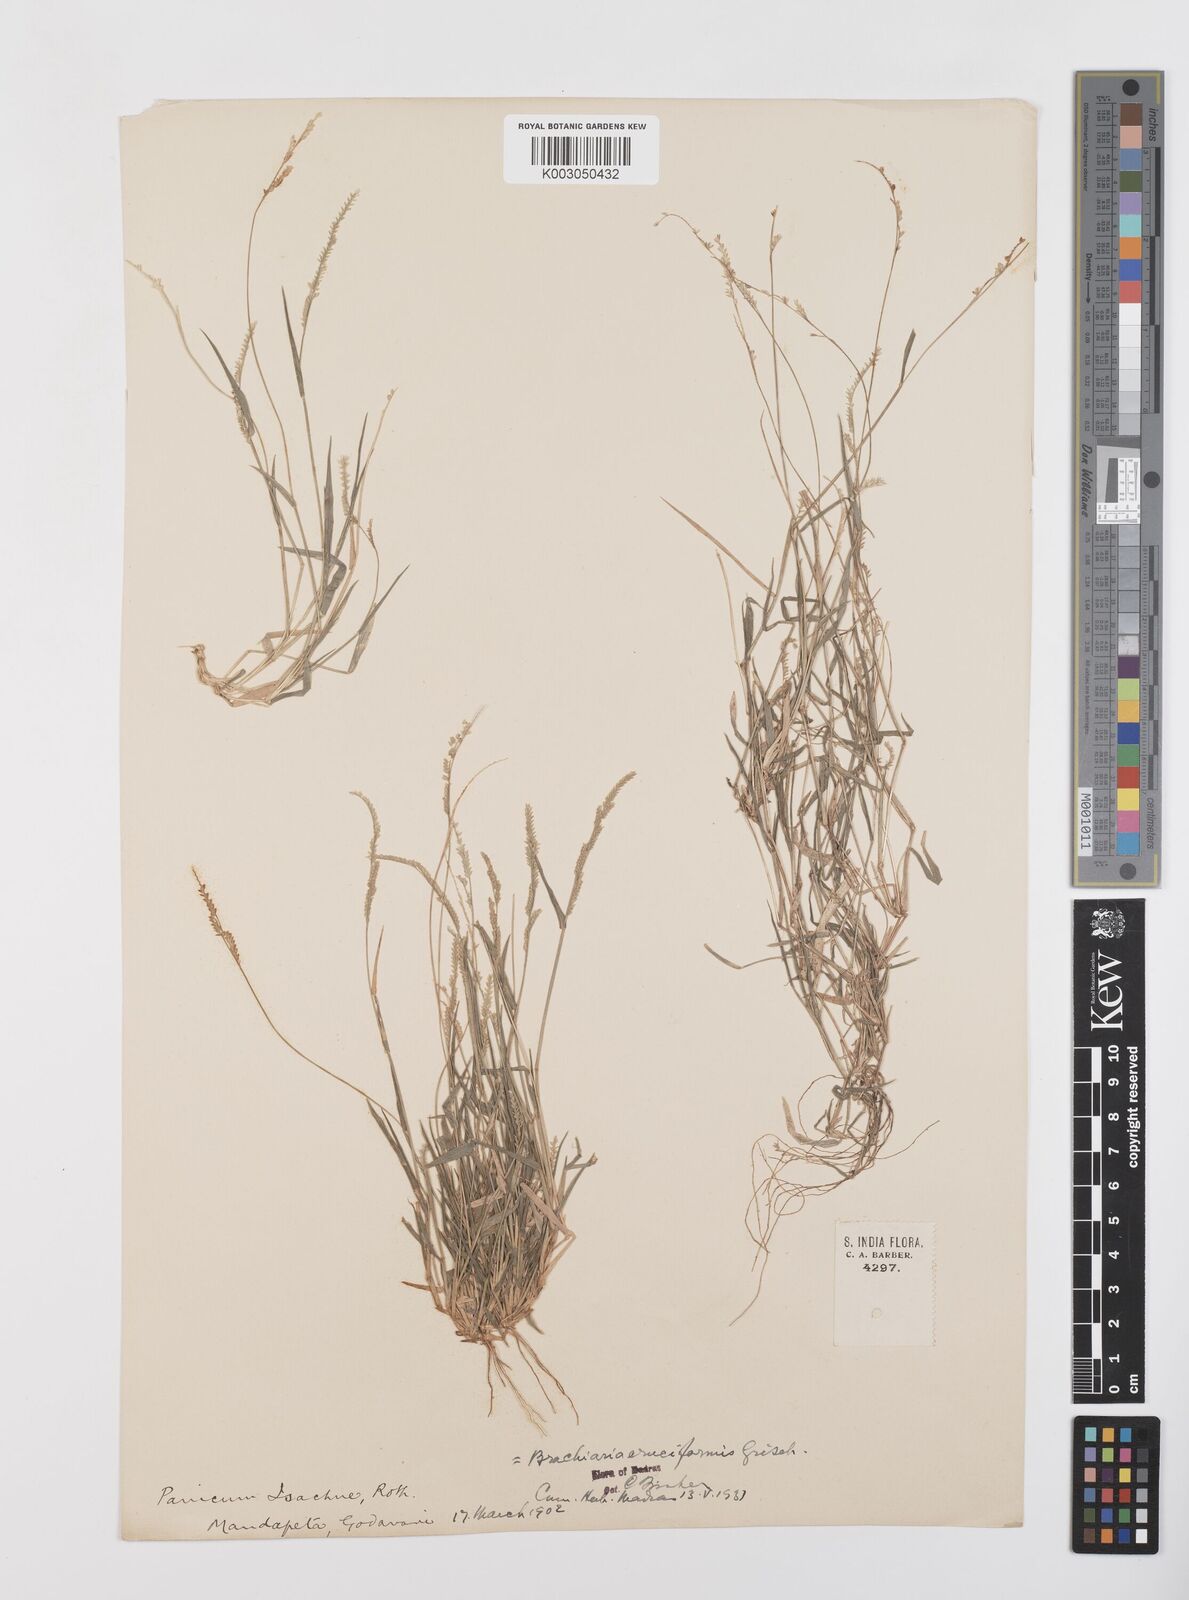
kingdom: Plantae
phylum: Tracheophyta
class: Liliopsida
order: Poales
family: Poaceae
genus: Moorochloa
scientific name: Moorochloa eruciformis
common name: Sweet signalgrass
